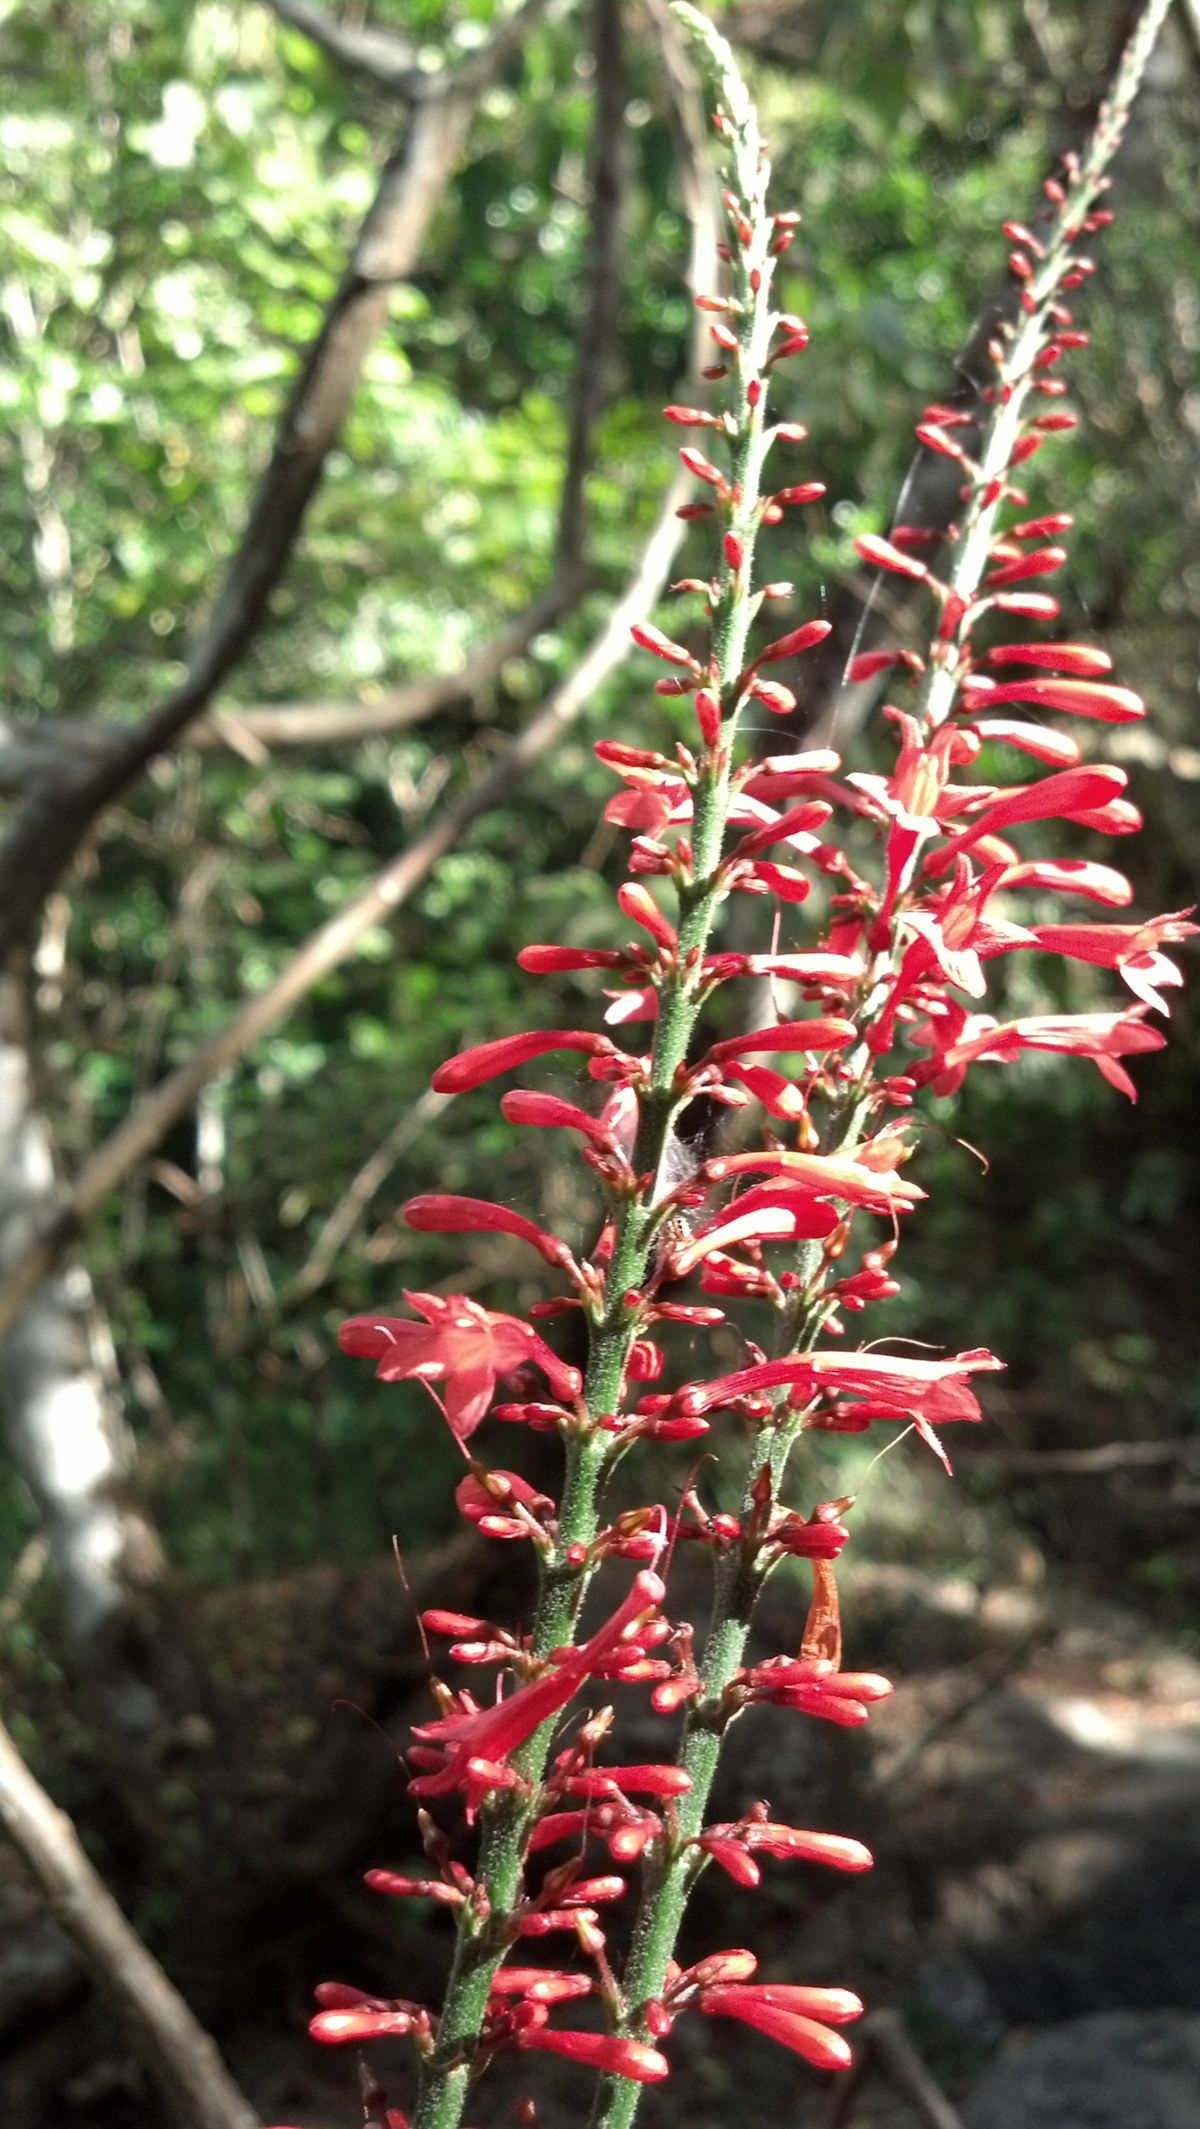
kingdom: Plantae
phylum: Tracheophyta
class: Magnoliopsida
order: Lamiales
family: Acanthaceae
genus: Odontonema
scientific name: Odontonema tubaeforme
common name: Firespike
